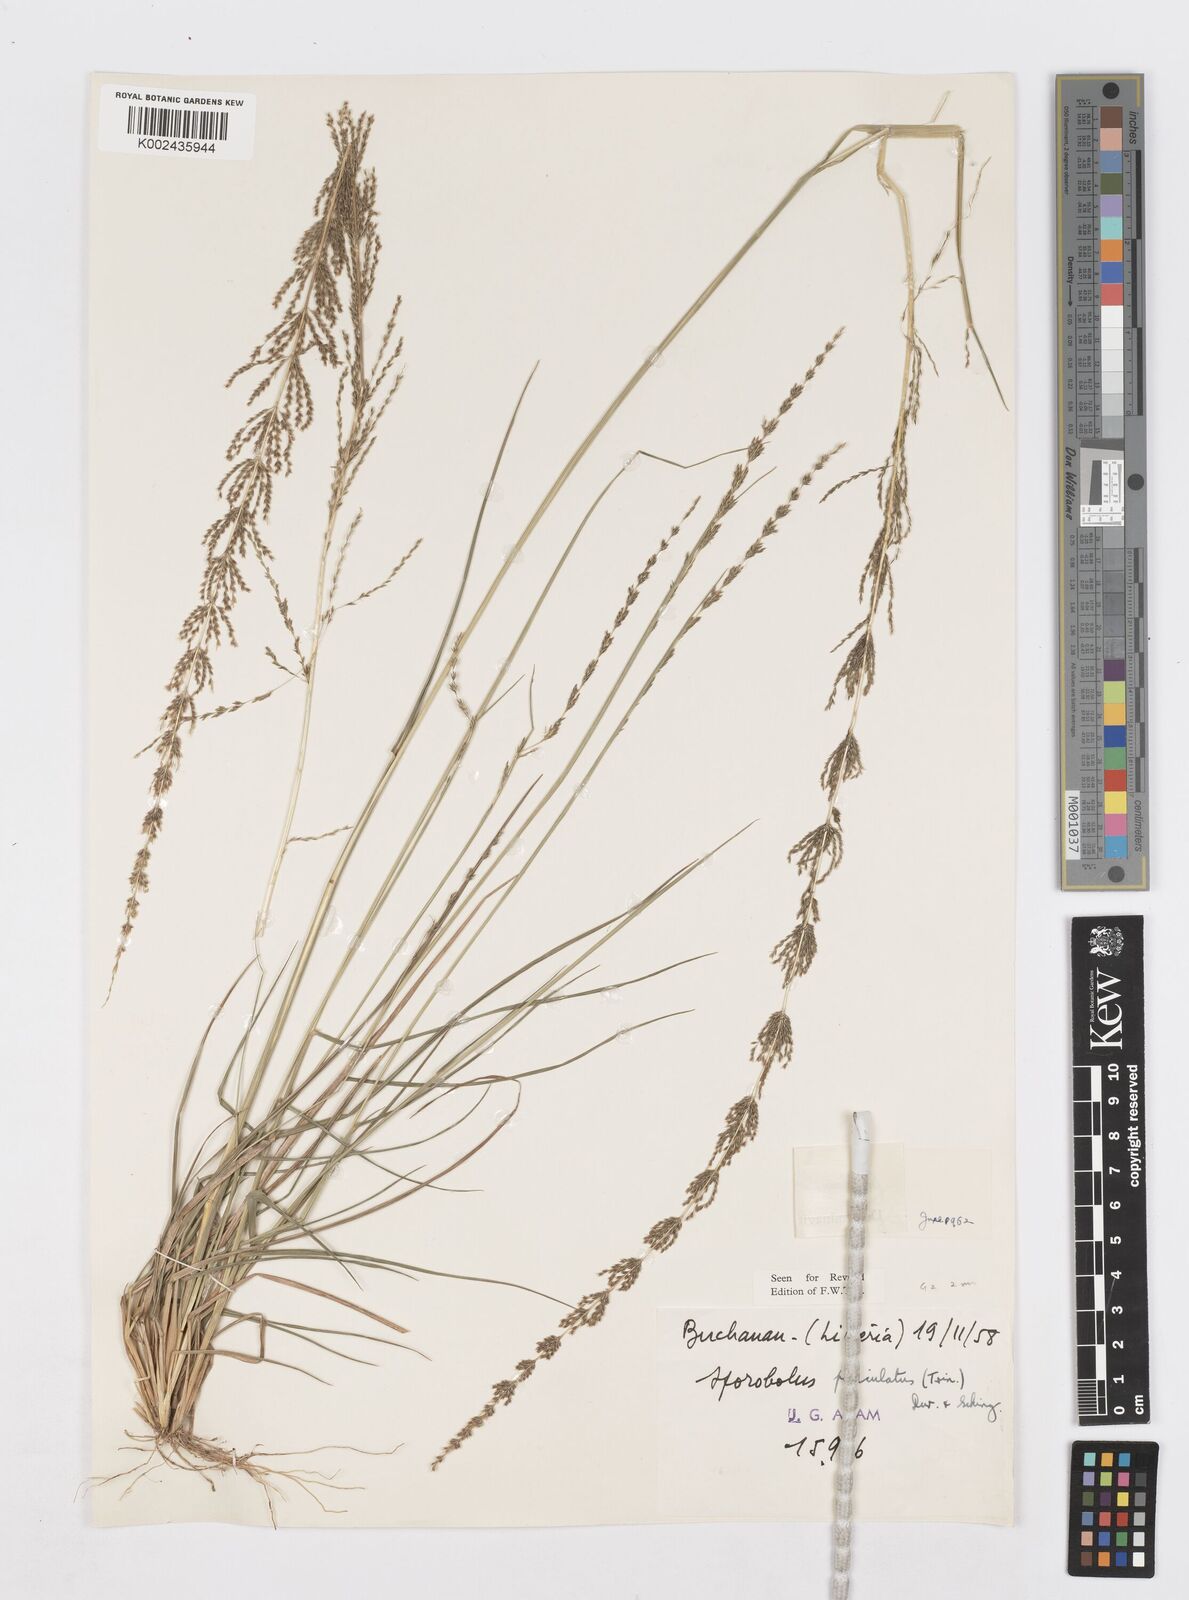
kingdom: Plantae
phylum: Tracheophyta
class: Liliopsida
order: Poales
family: Poaceae
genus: Sporobolus
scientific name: Sporobolus dinklagei
